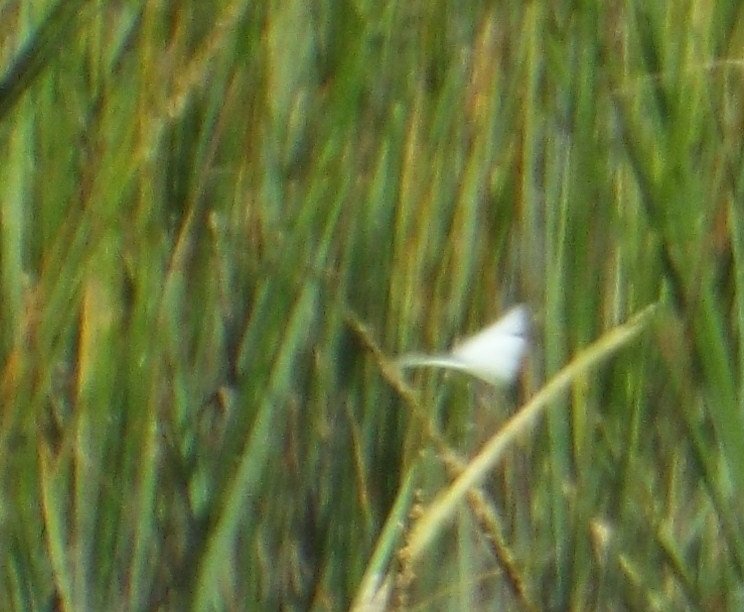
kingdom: Animalia
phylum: Arthropoda
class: Insecta
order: Lepidoptera
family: Pieridae
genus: Ascia
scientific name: Ascia monuste
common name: Great Southern White
